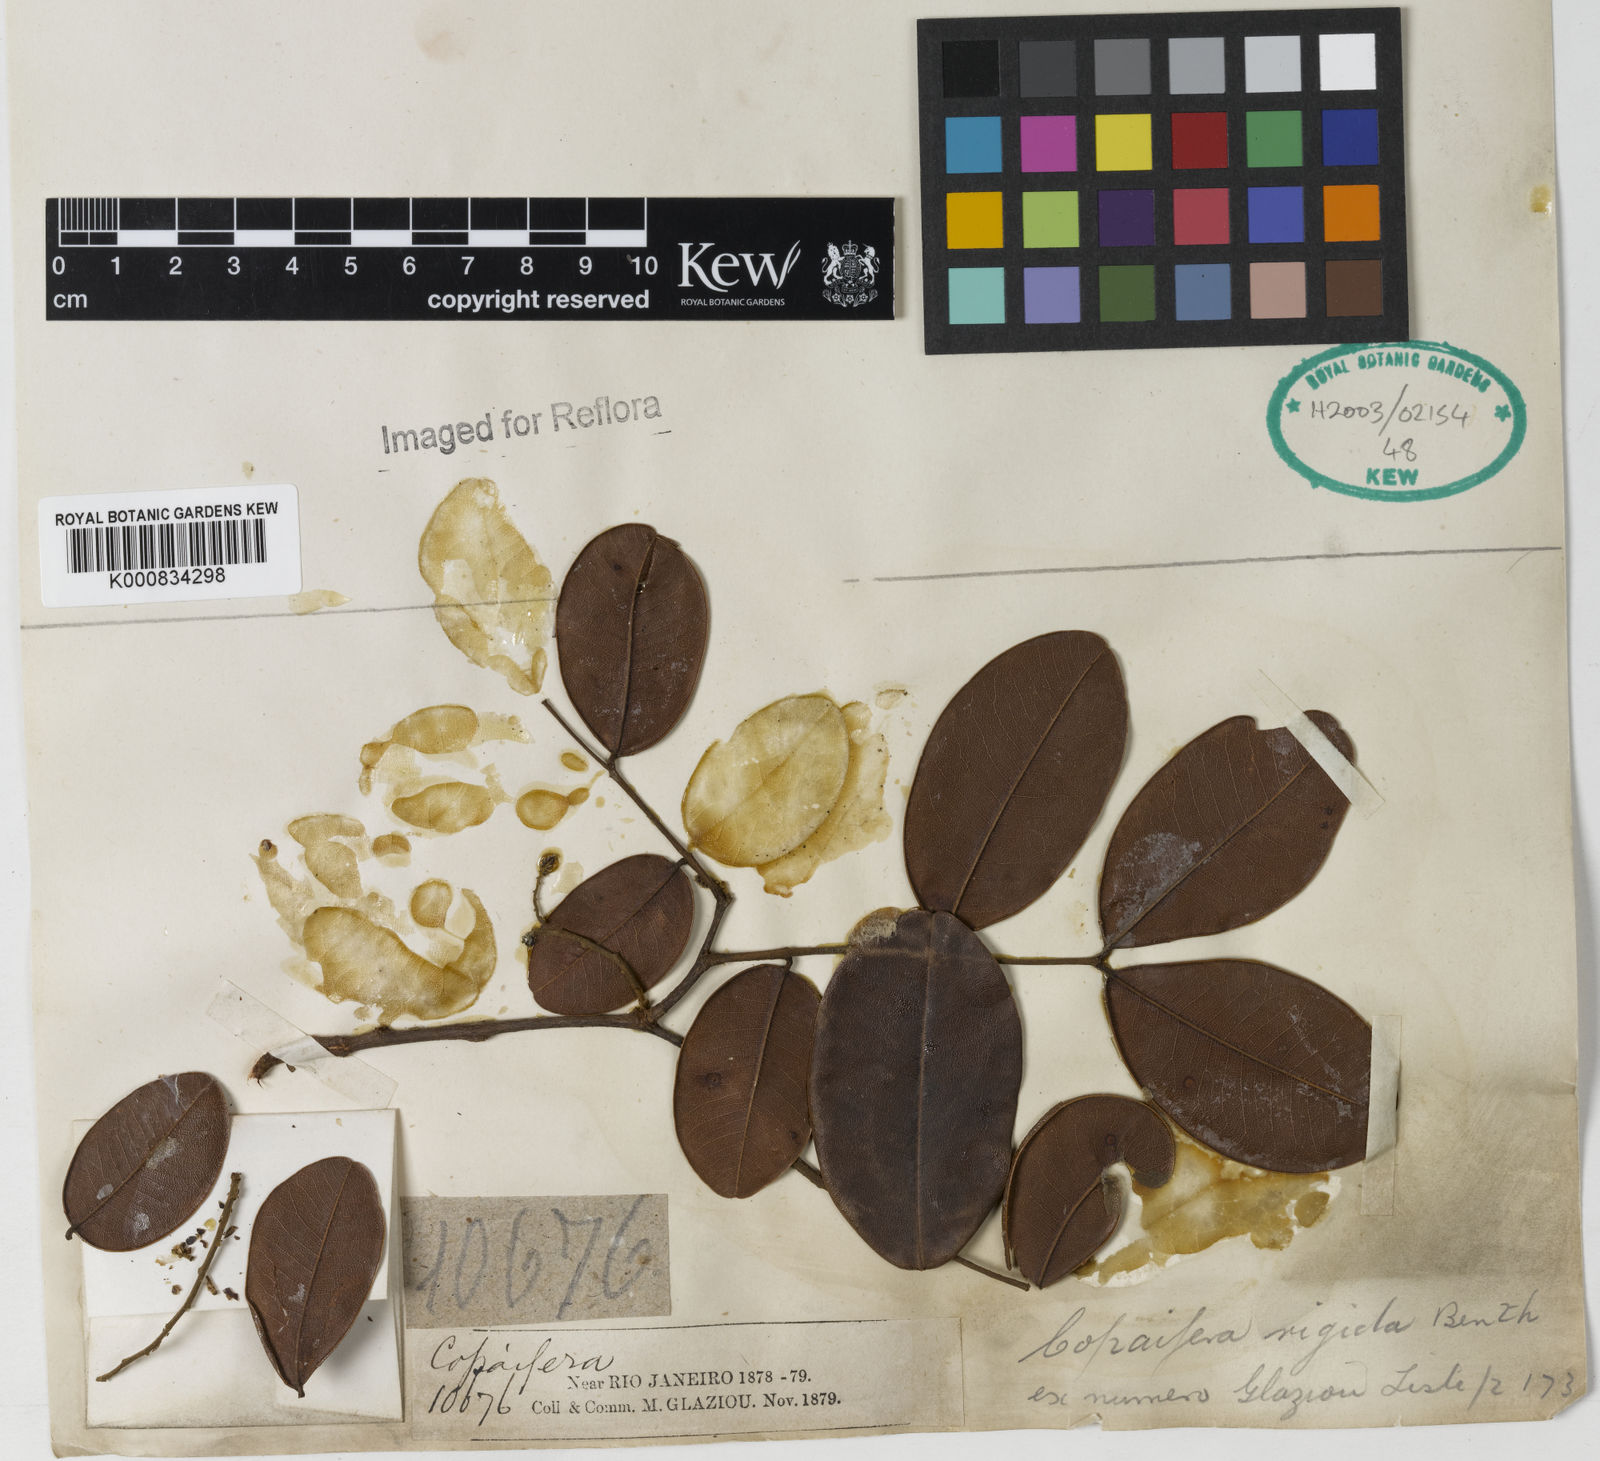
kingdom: Plantae
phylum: Tracheophyta
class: Magnoliopsida
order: Fabales
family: Fabaceae
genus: Copaifera
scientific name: Copaifera martii
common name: Copaiba
